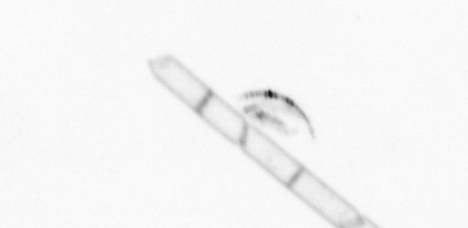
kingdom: Chromista
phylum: Ochrophyta
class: Bacillariophyceae
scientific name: Bacillariophyceae
